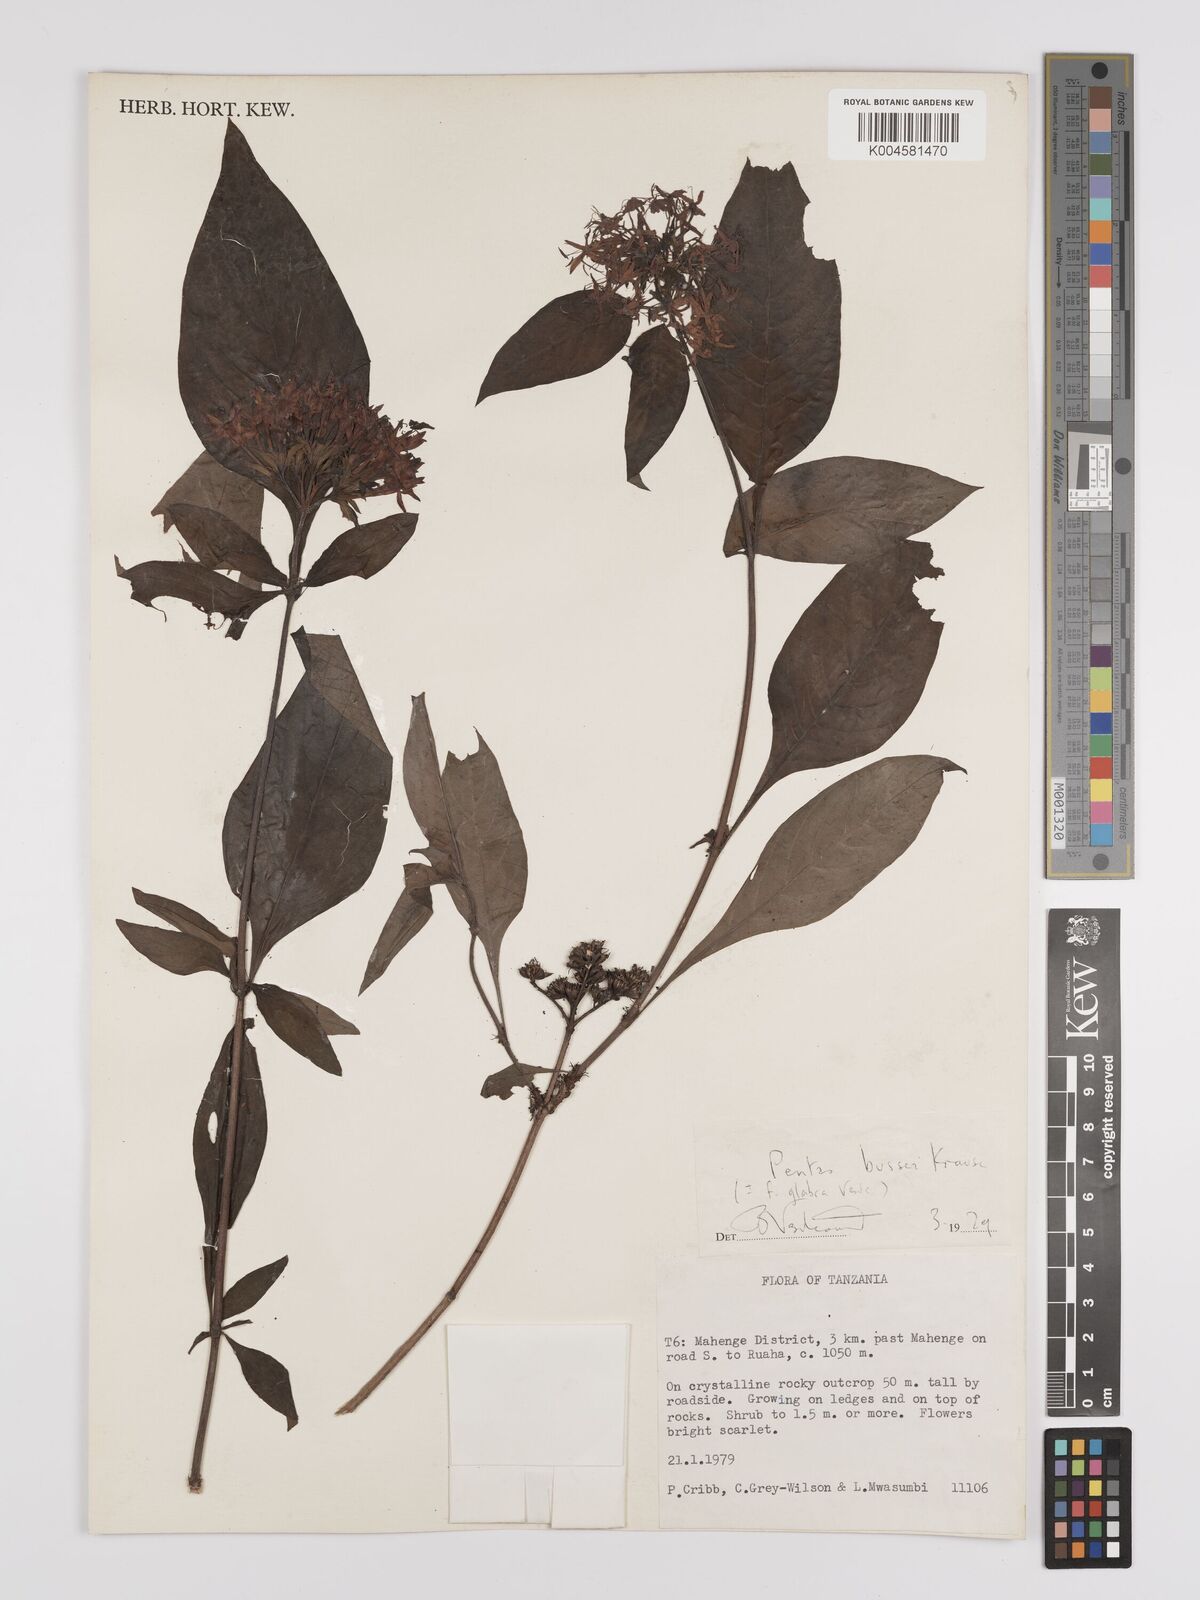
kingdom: Plantae
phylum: Tracheophyta
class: Magnoliopsida
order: Gentianales
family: Rubiaceae
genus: Rhodopentas
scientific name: Rhodopentas bussei
